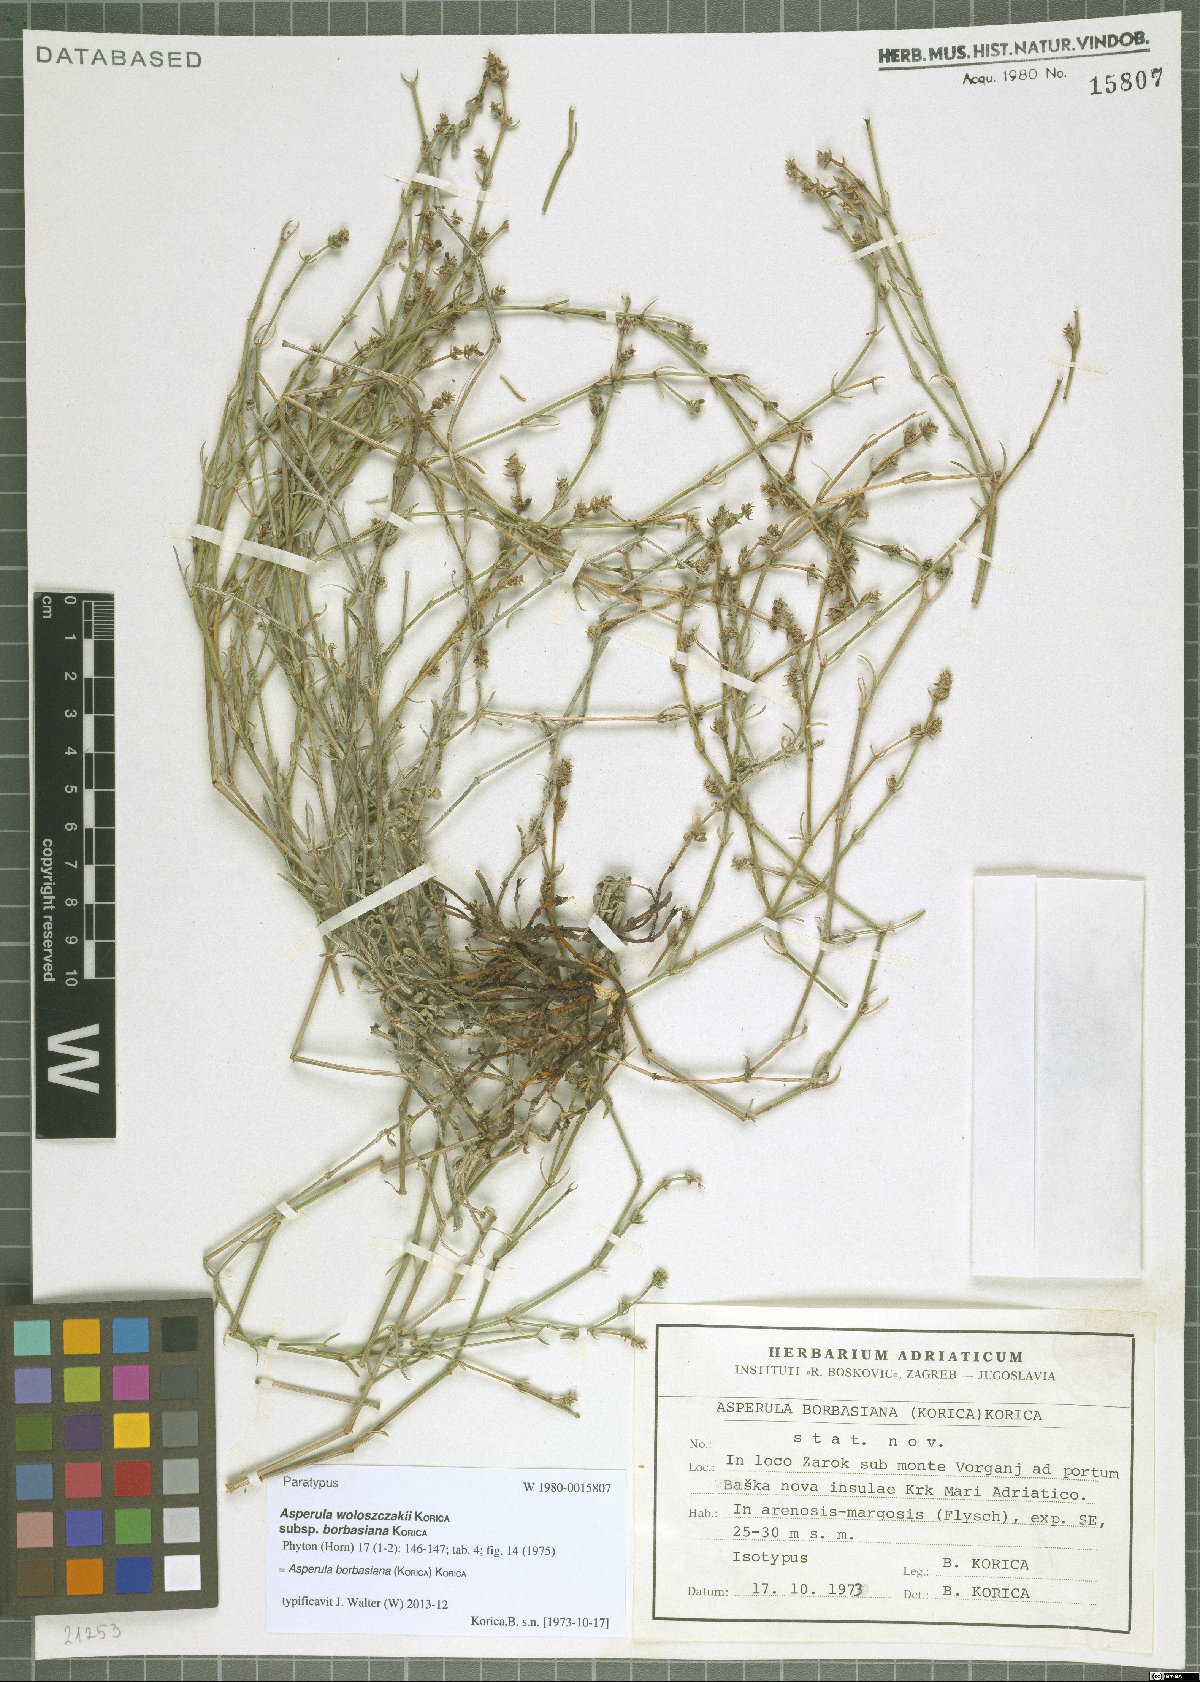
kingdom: Plantae
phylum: Tracheophyta
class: Magnoliopsida
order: Gentianales
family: Rubiaceae
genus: Cynanchica
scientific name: Cynanchica borbasiana
